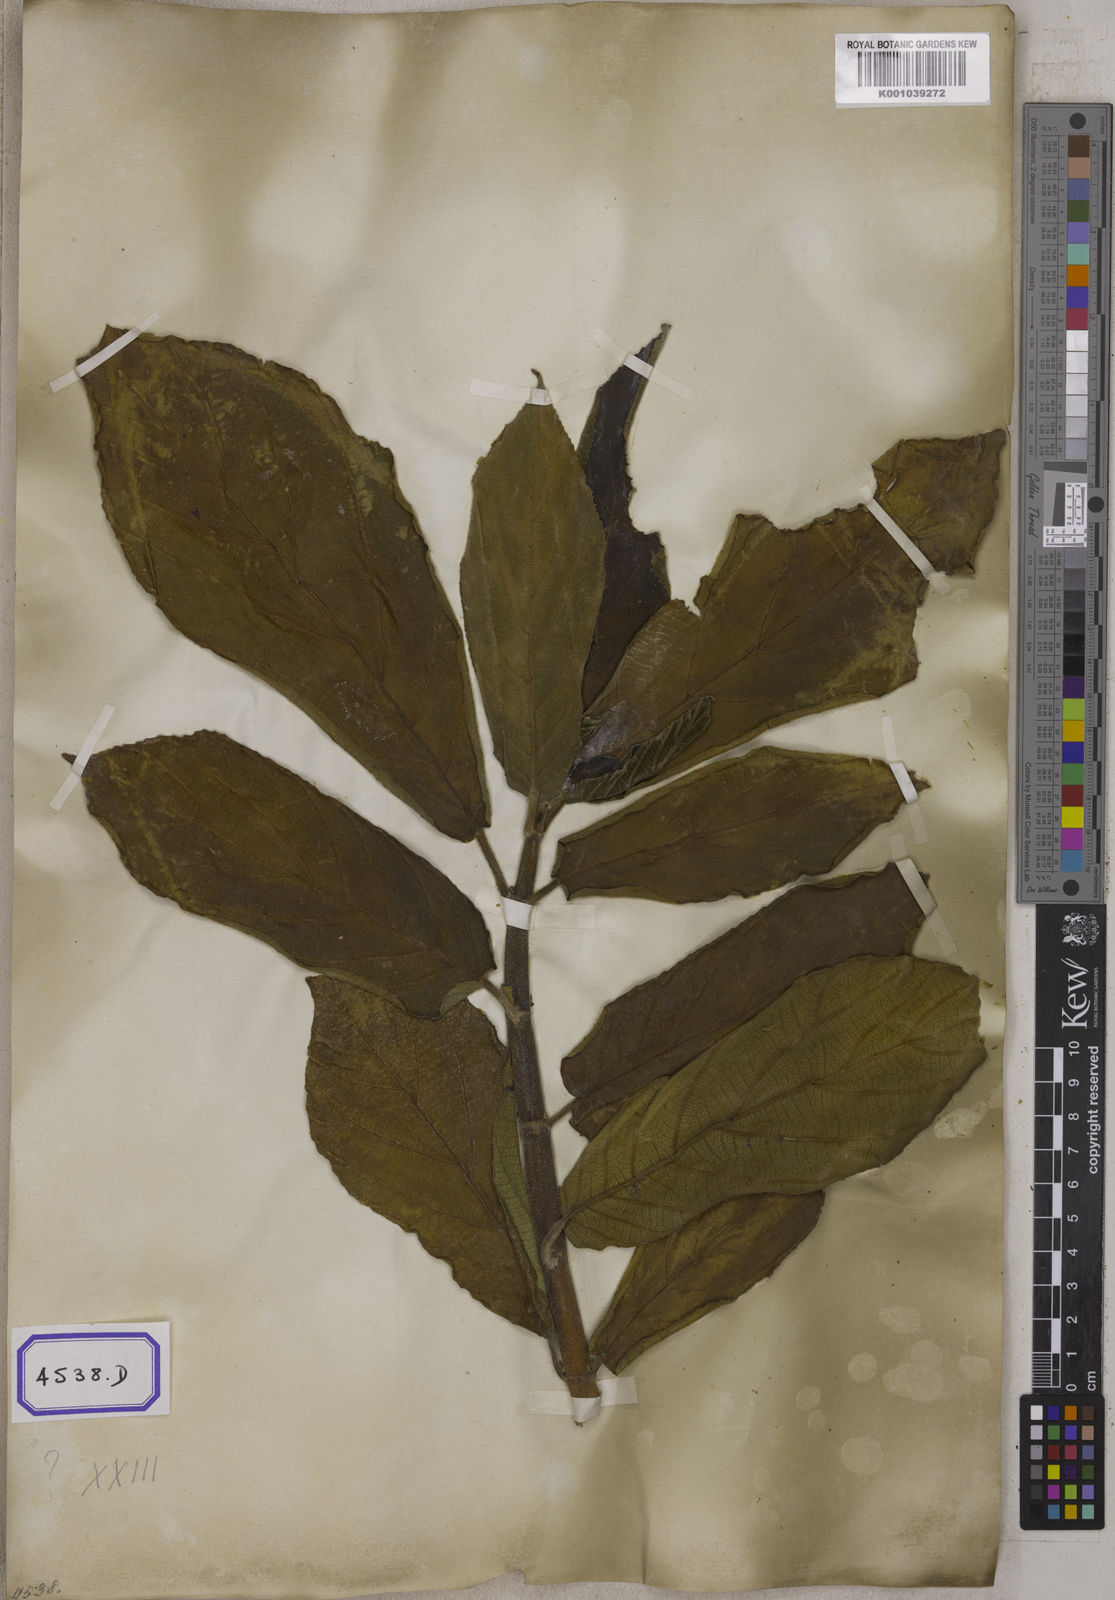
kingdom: Plantae
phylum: Tracheophyta
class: Magnoliopsida
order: Rosales
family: Moraceae
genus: Ficus
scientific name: Ficus hispida
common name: Hairy fig
